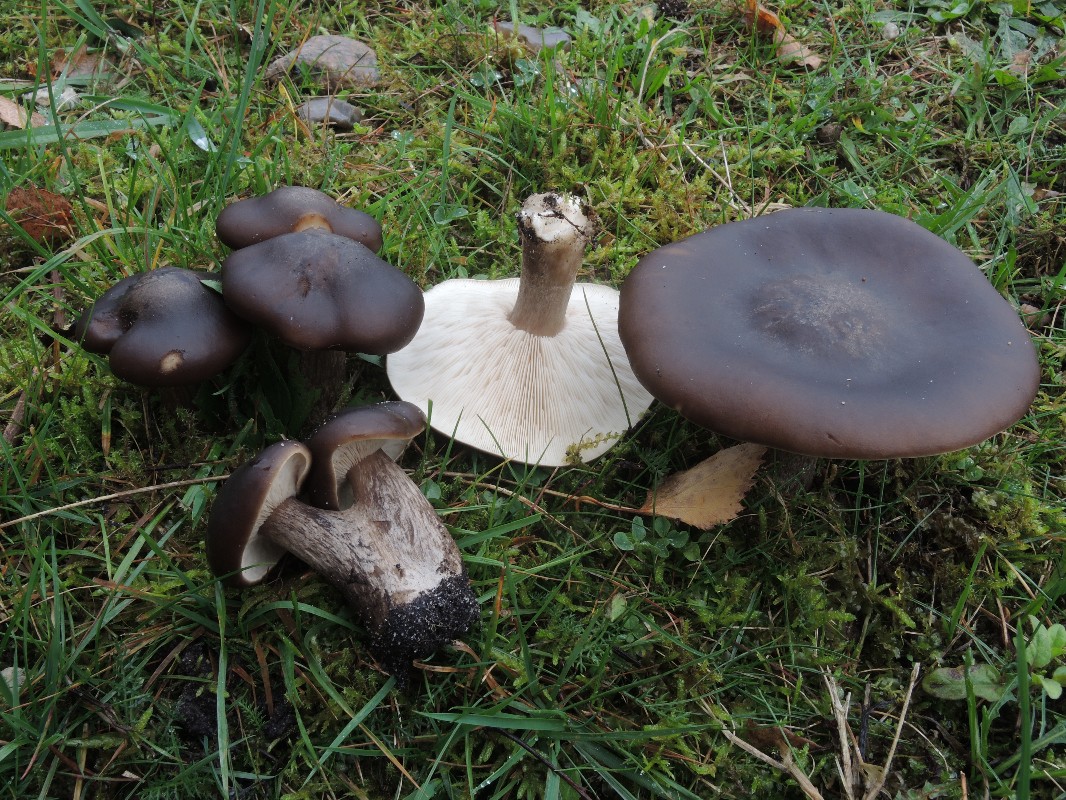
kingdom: Fungi
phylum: Basidiomycota
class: Agaricomycetes
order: Agaricales
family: Tricholomataceae
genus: Melanoleuca
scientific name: Melanoleuca grammopodia
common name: stribestokket munkehat
